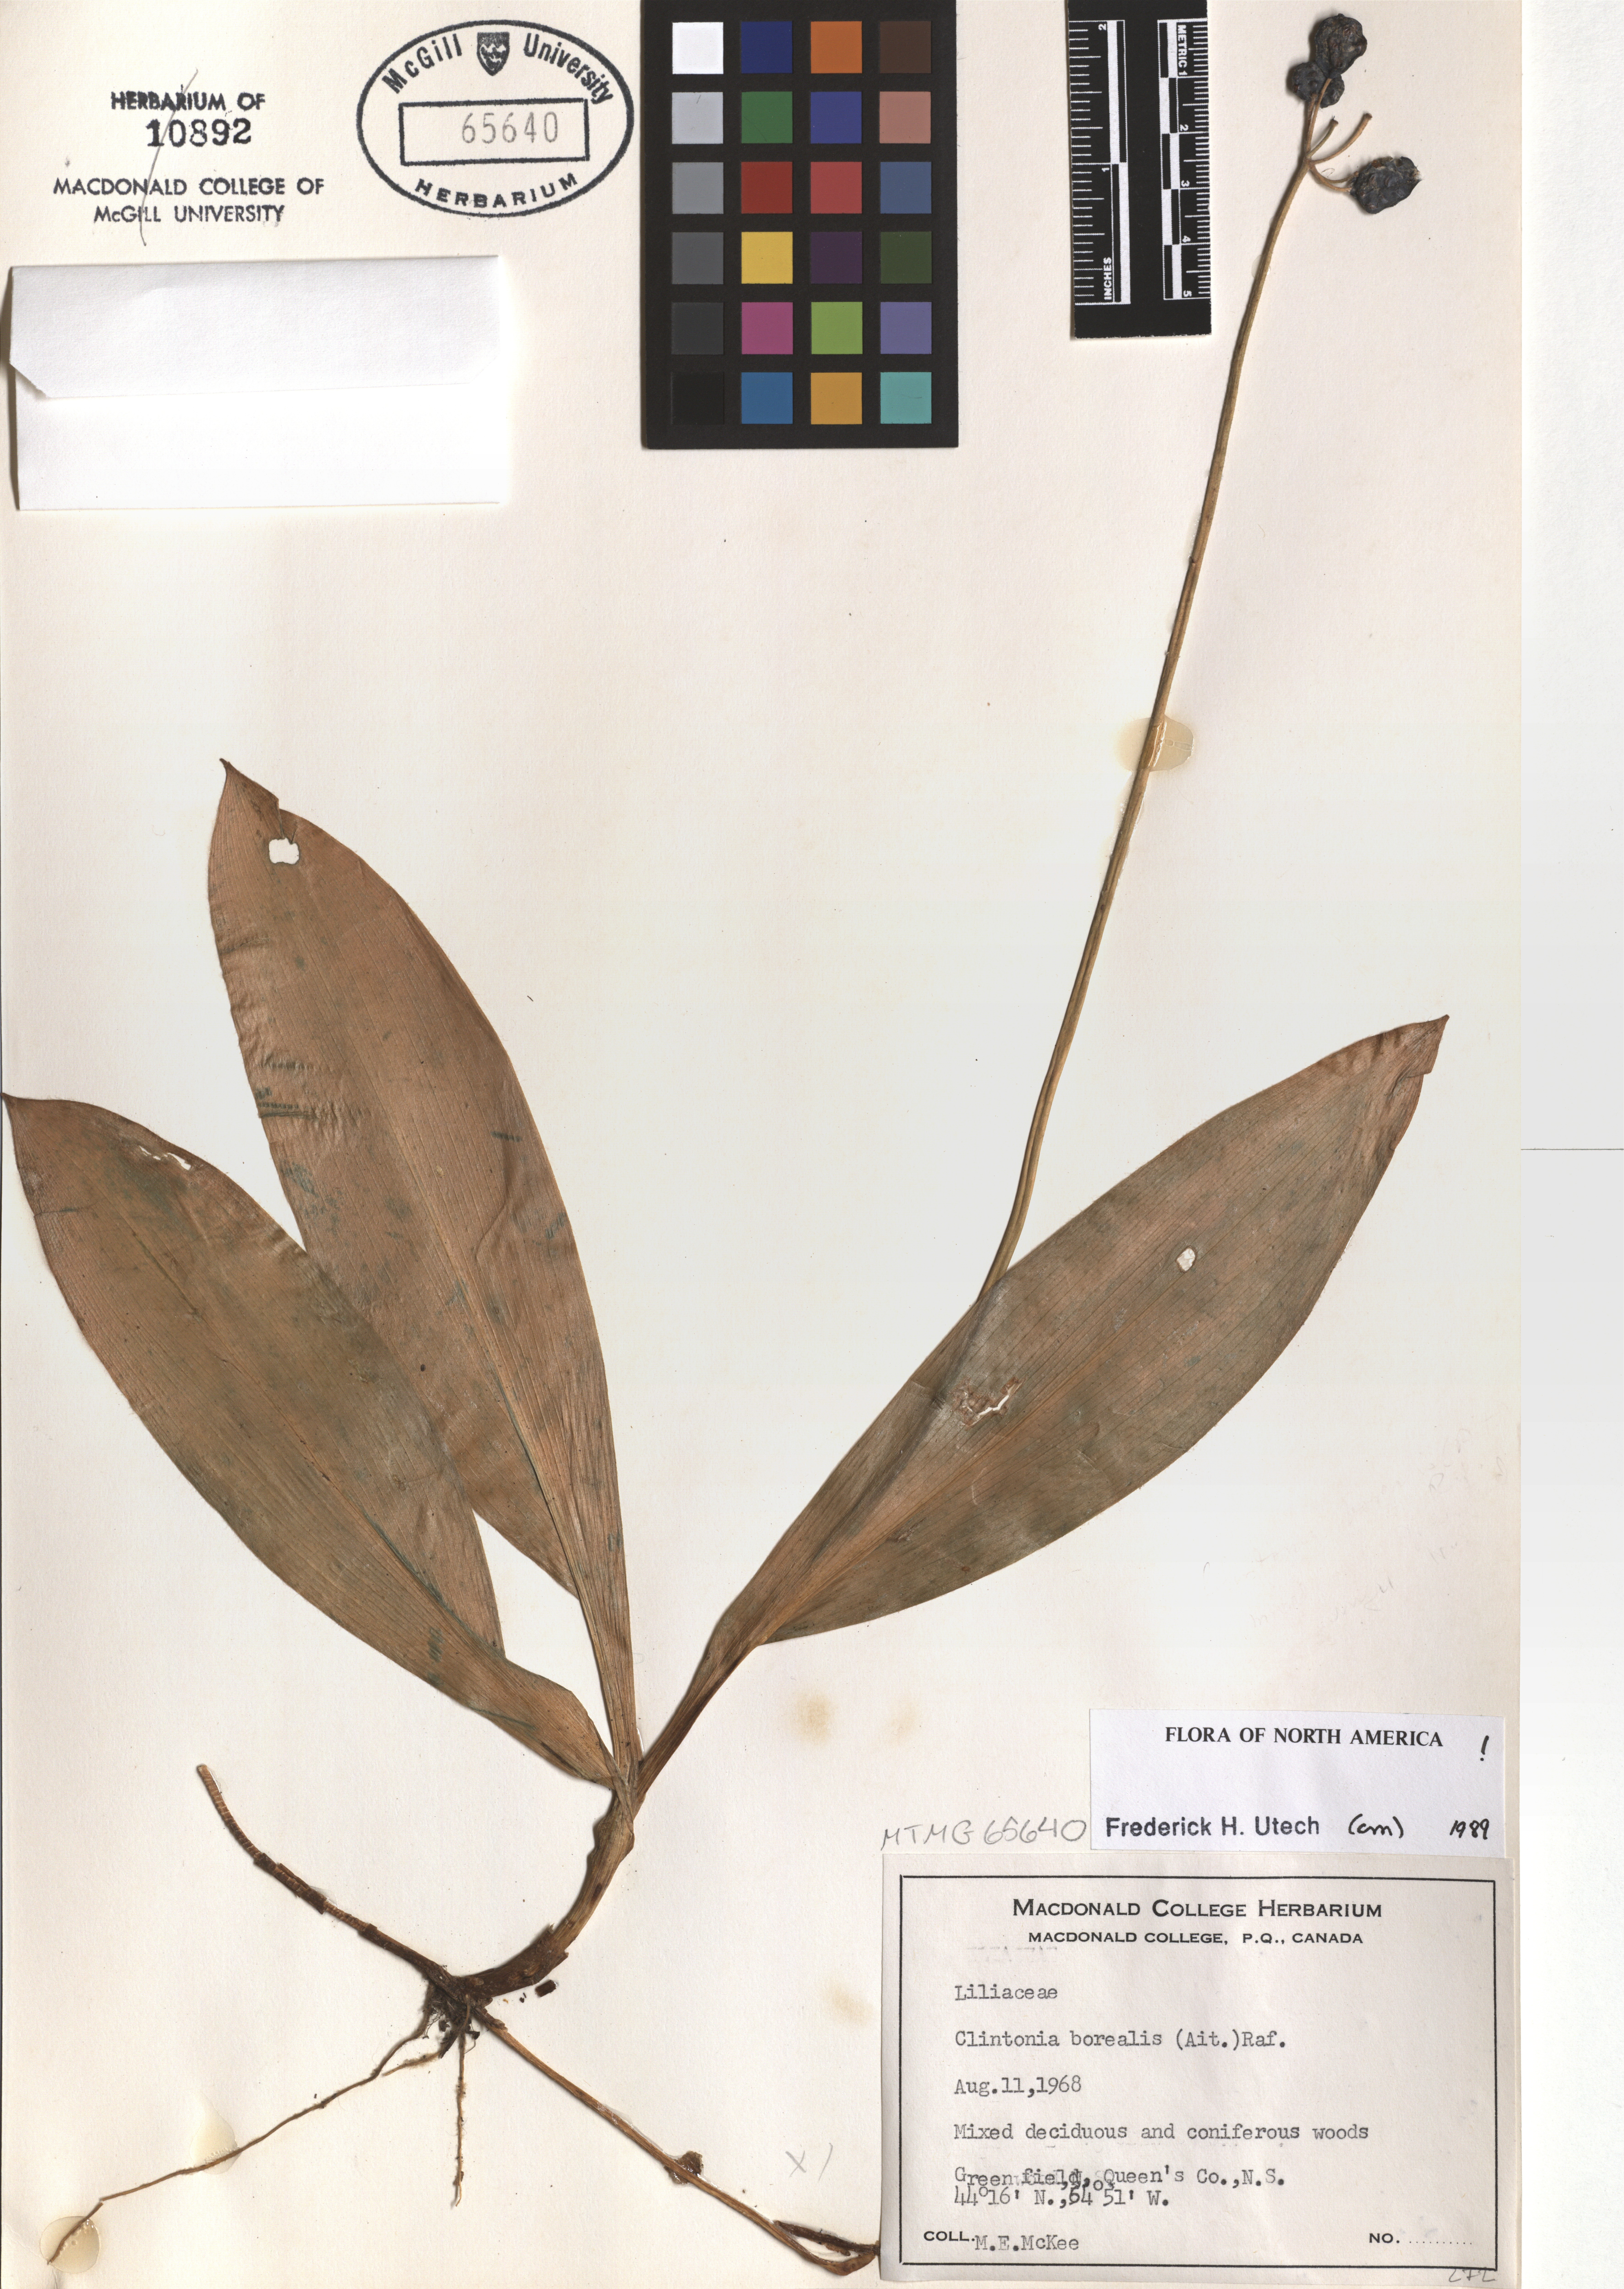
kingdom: Plantae
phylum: Tracheophyta
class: Liliopsida
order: Liliales
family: Liliaceae
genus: Clintonia
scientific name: Clintonia borealis
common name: Yellow clintonia
